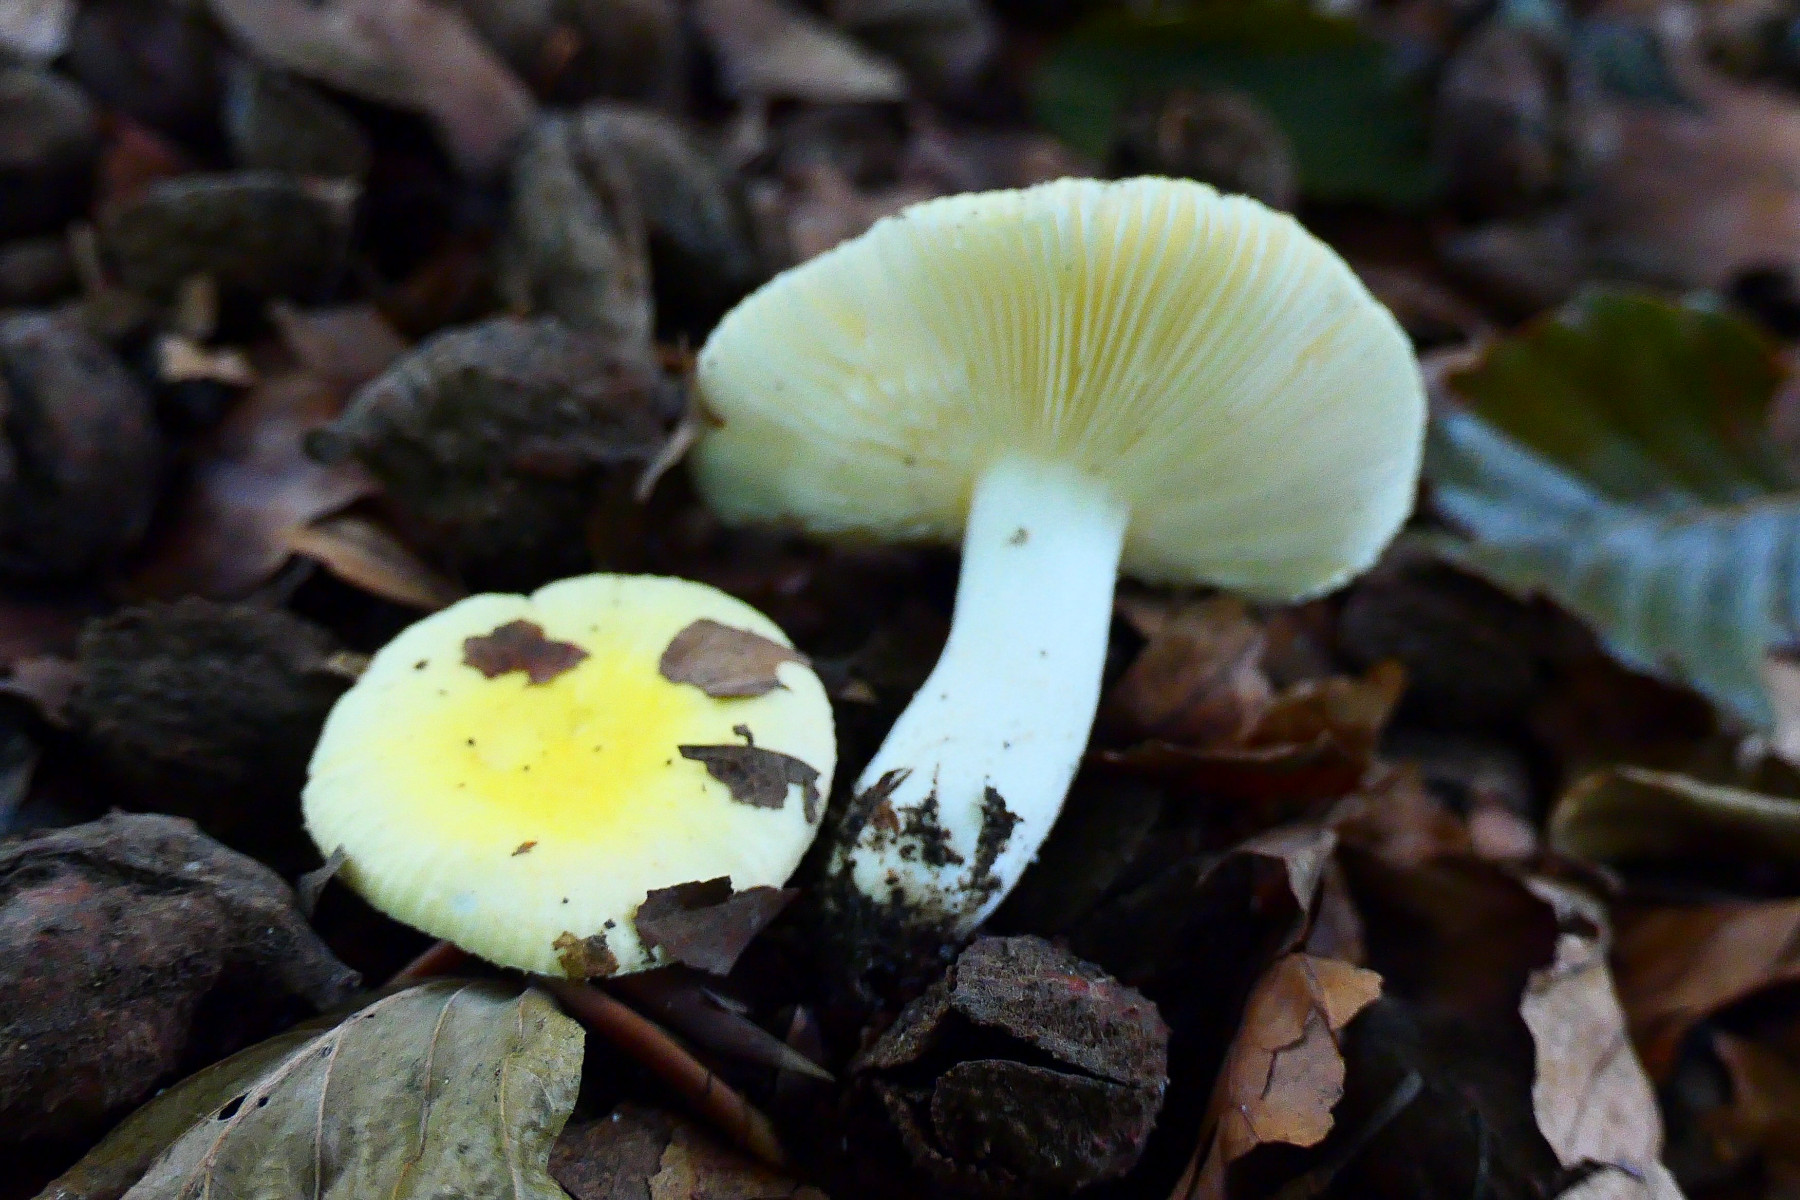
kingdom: Fungi
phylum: Basidiomycota
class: Agaricomycetes
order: Russulales
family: Russulaceae
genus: Russula
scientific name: Russula solaris
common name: sol-skørhat
